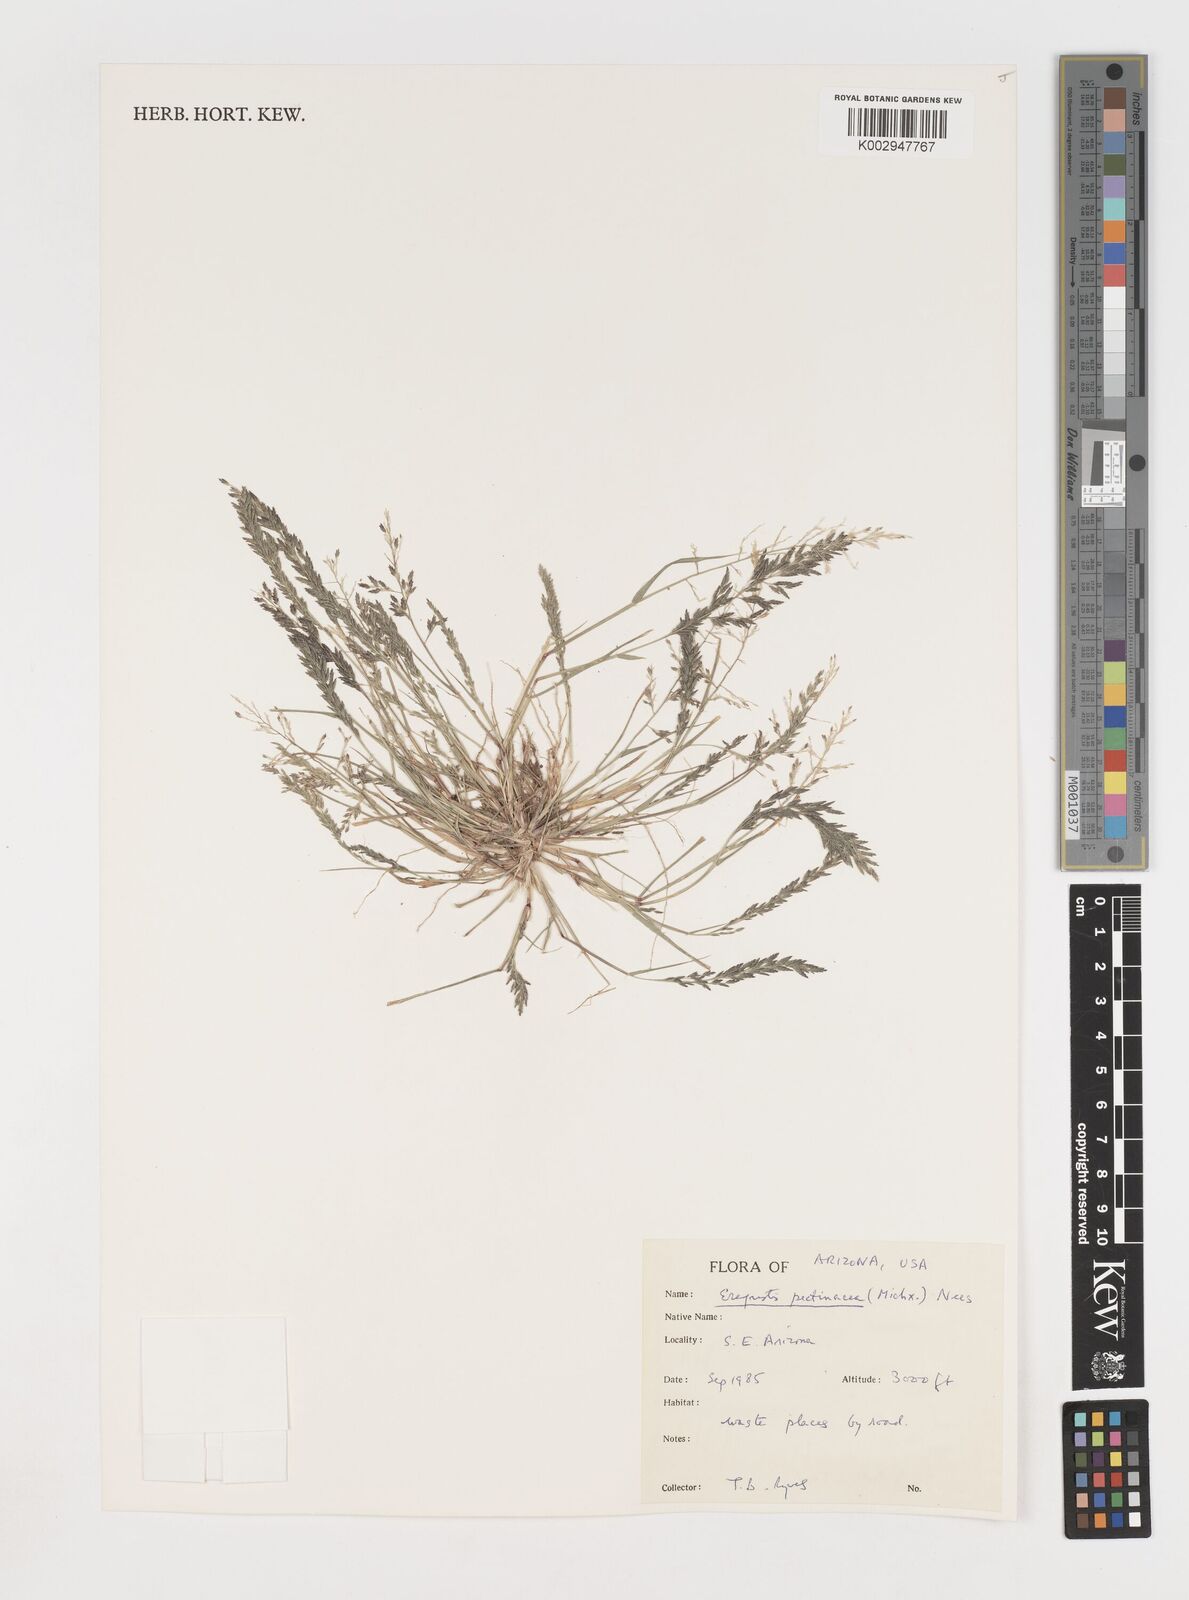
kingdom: Plantae
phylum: Tracheophyta
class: Liliopsida
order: Poales
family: Poaceae
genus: Eragrostis
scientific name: Eragrostis pectinacea
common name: Tufted lovegrass
